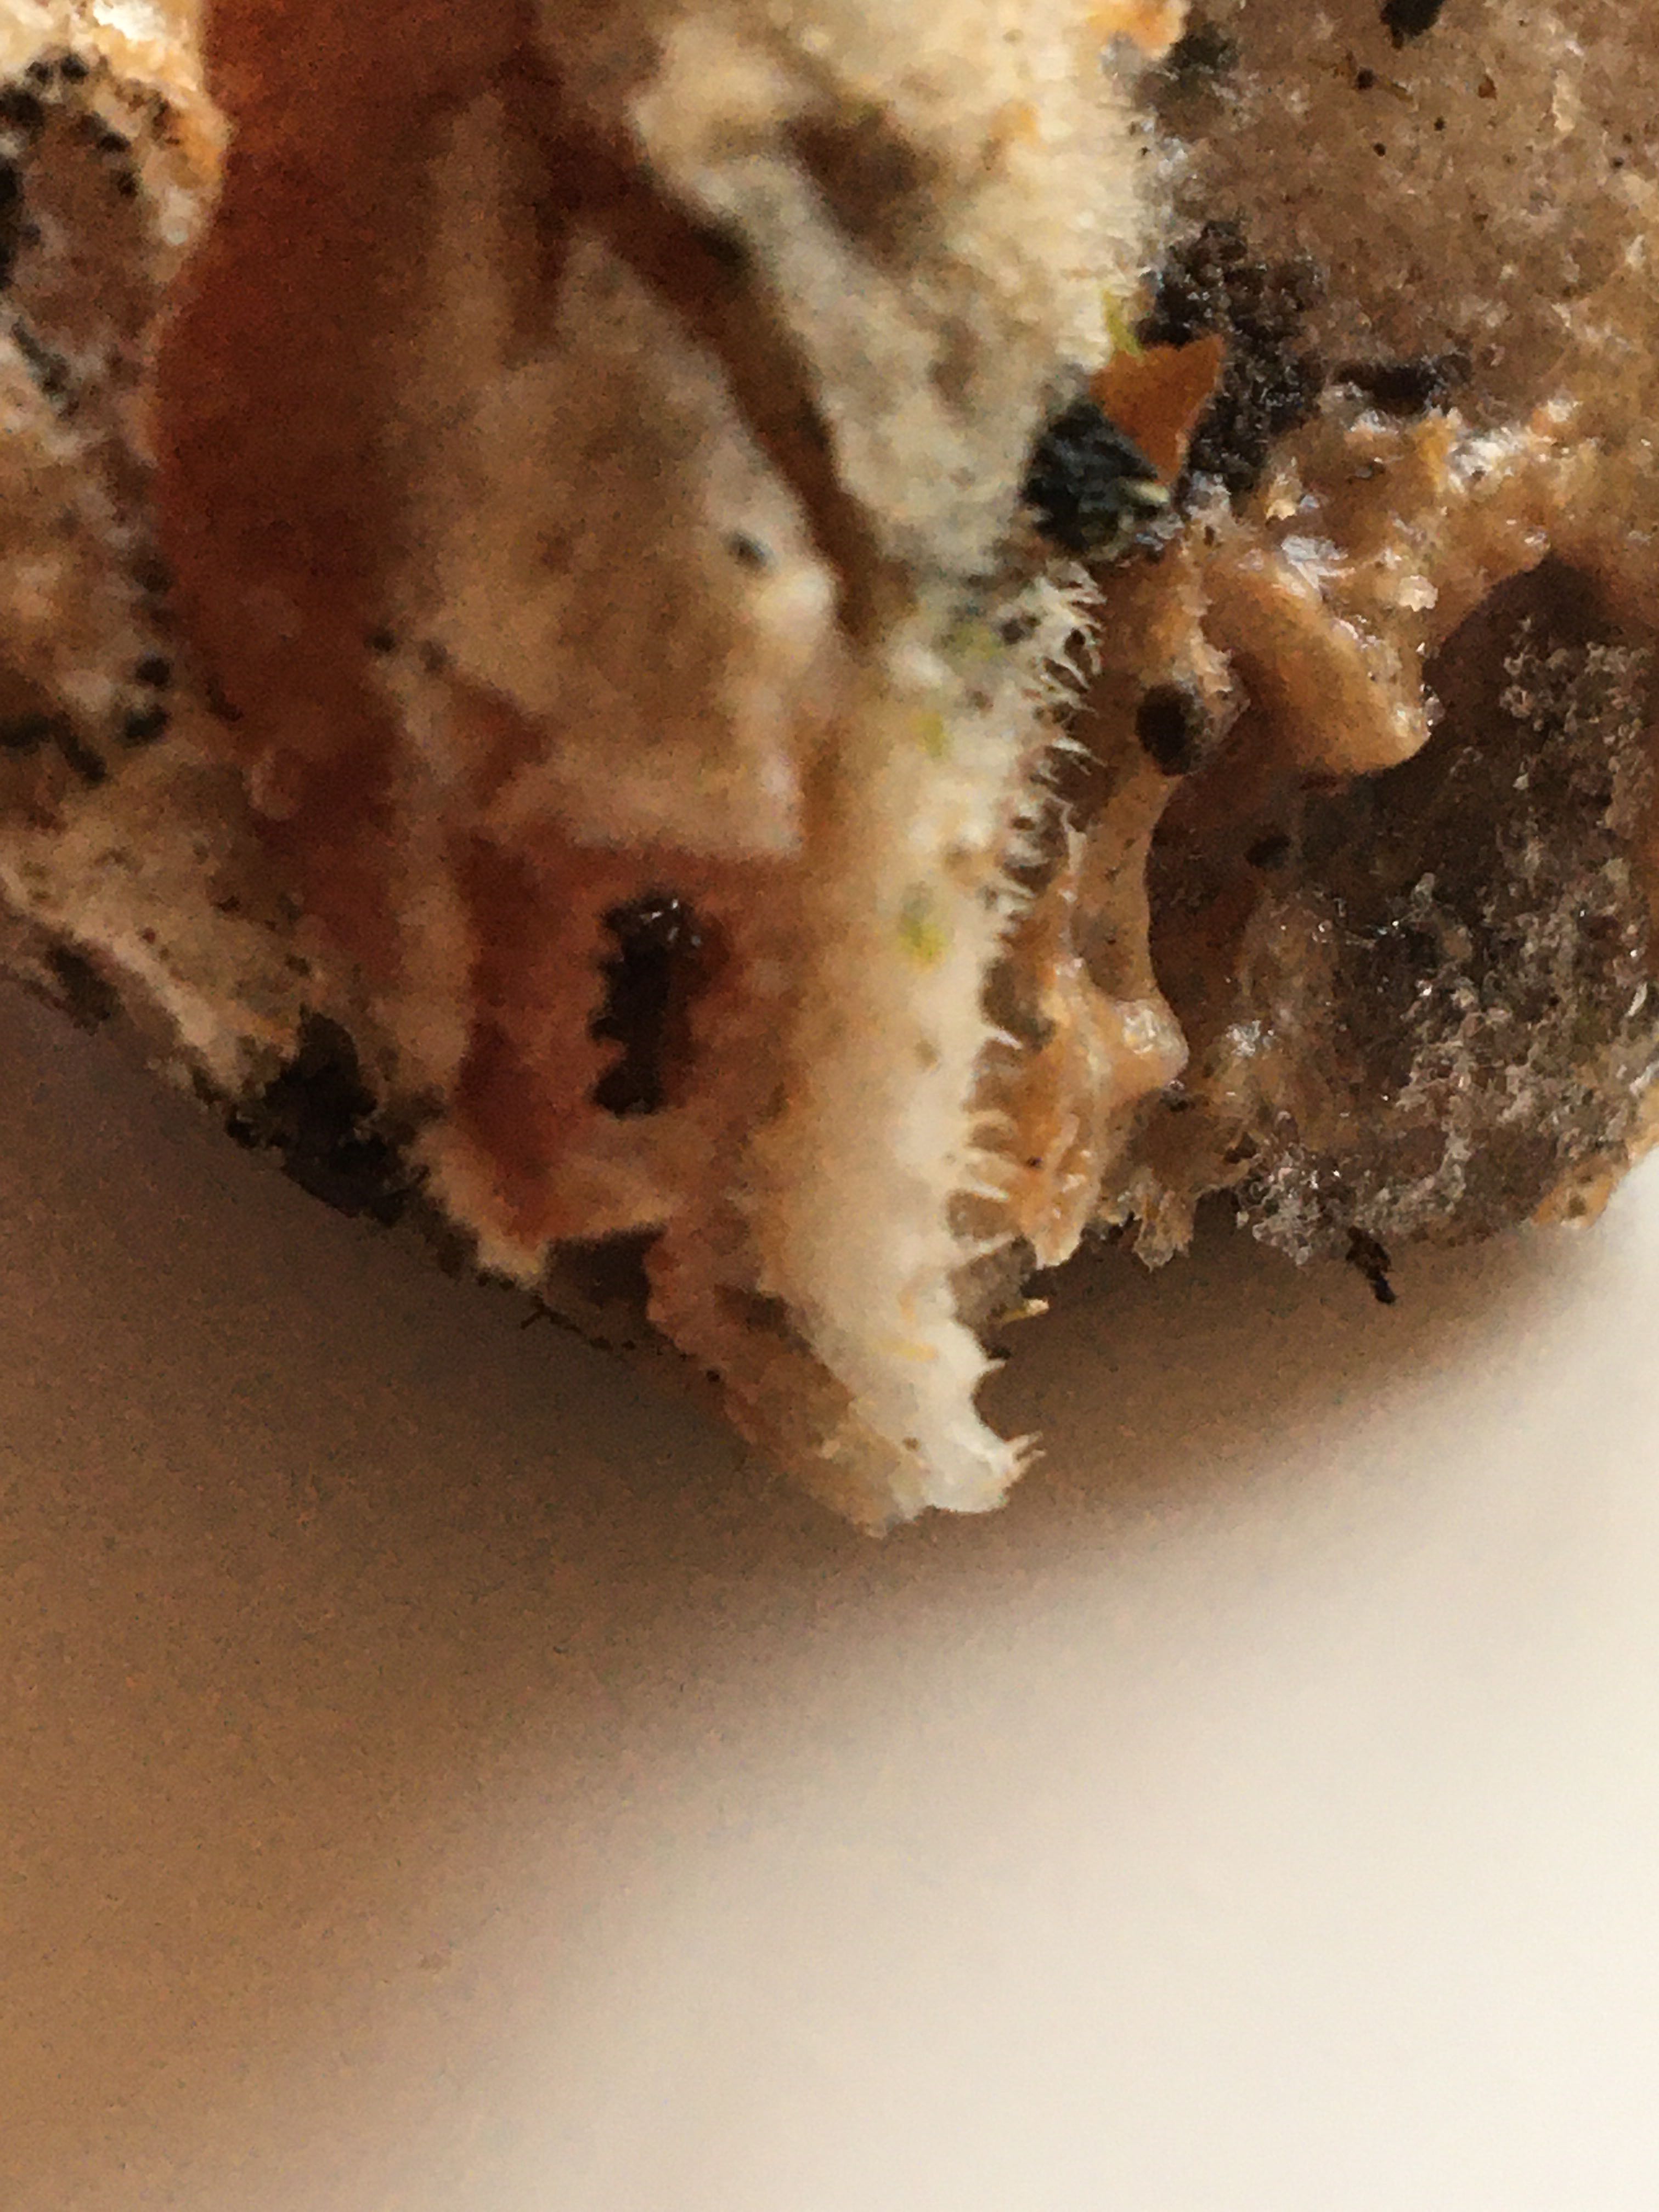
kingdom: Fungi
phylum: Basidiomycota
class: Agaricomycetes
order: Polyporales
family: Meruliaceae
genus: Phlebia
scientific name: Phlebia tremellosa
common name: bævrende åresvamp
